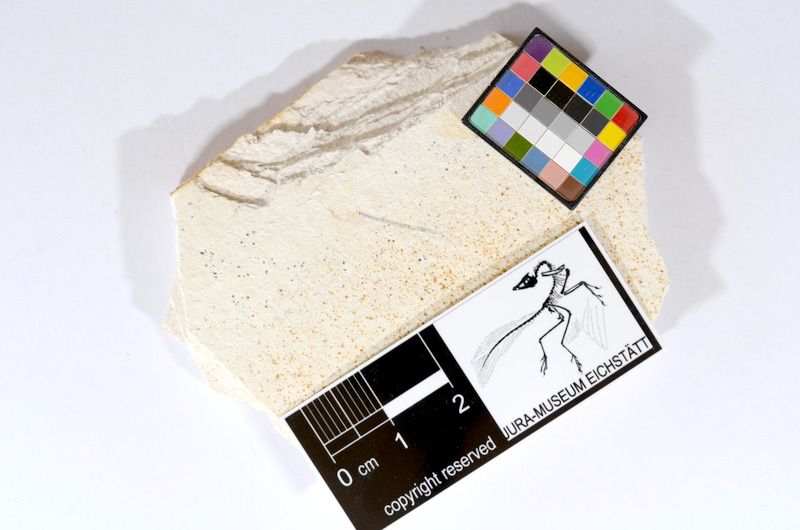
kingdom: Animalia
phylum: Chordata
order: Salmoniformes
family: Orthogonikleithridae
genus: Orthogonikleithrus
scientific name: Orthogonikleithrus hoelli
